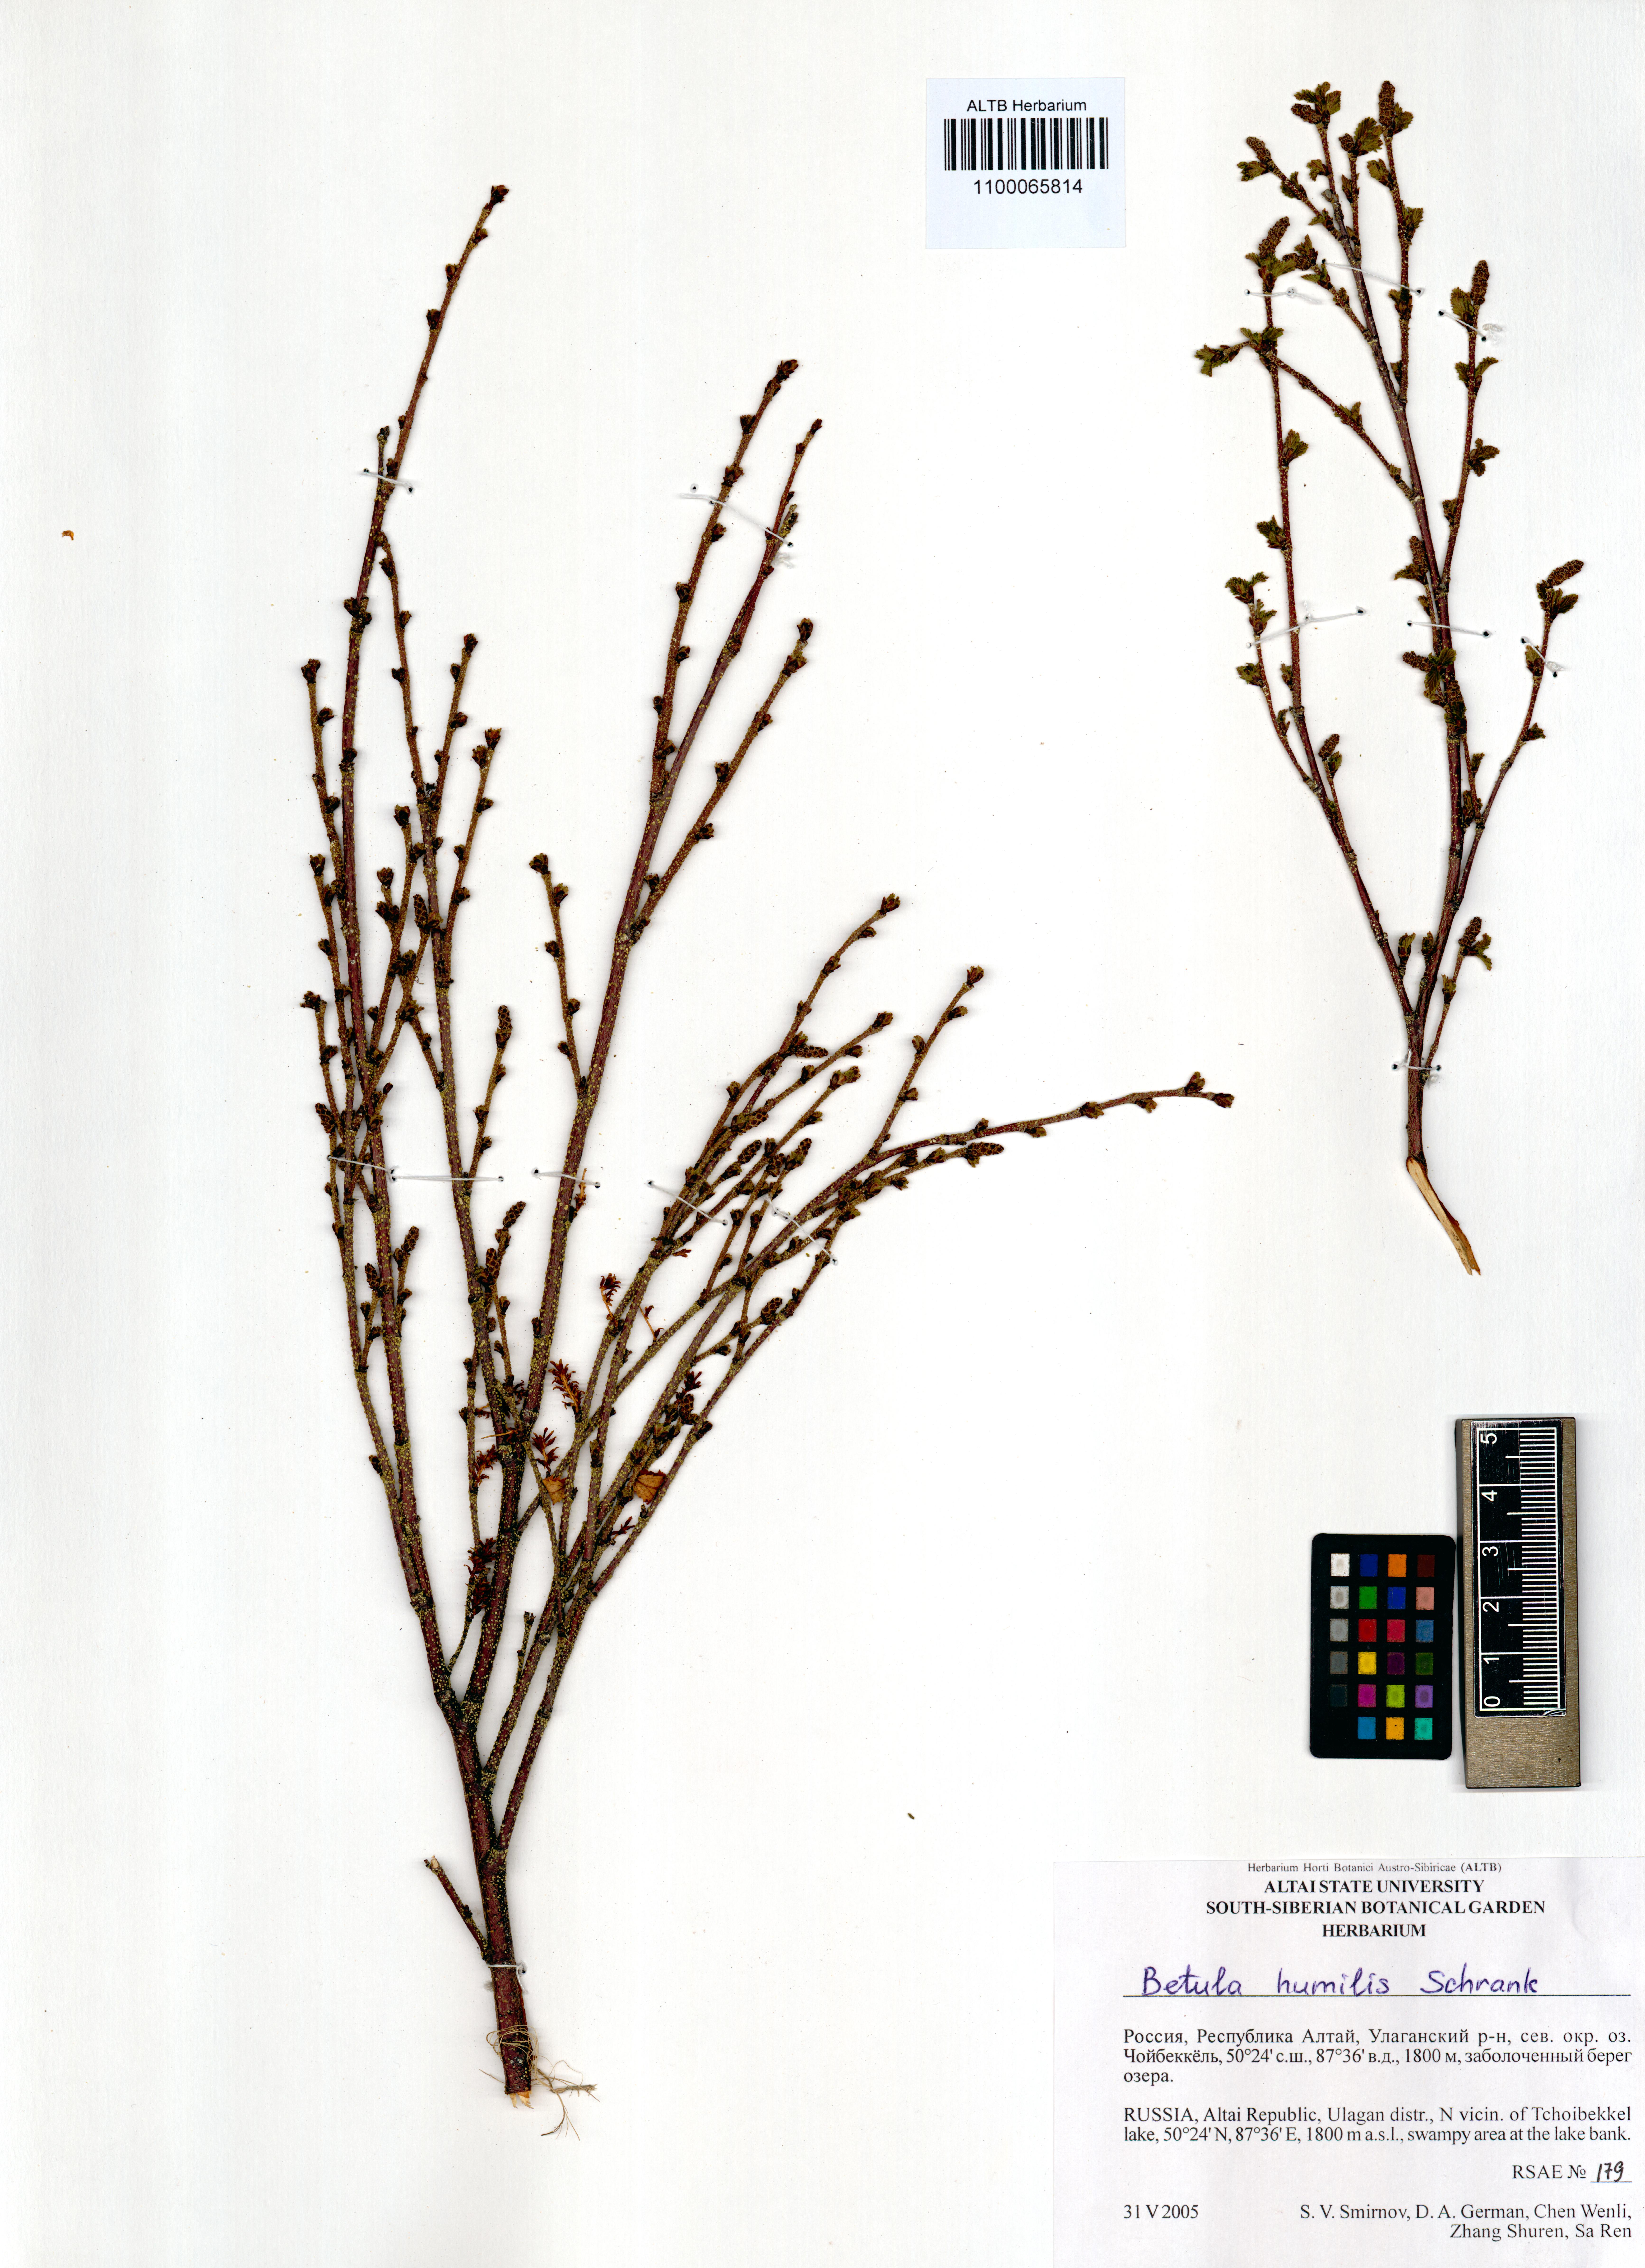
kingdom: Plantae
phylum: Tracheophyta
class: Magnoliopsida
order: Fagales
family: Betulaceae
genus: Betula
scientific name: Betula humilis
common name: Shrubby birch
